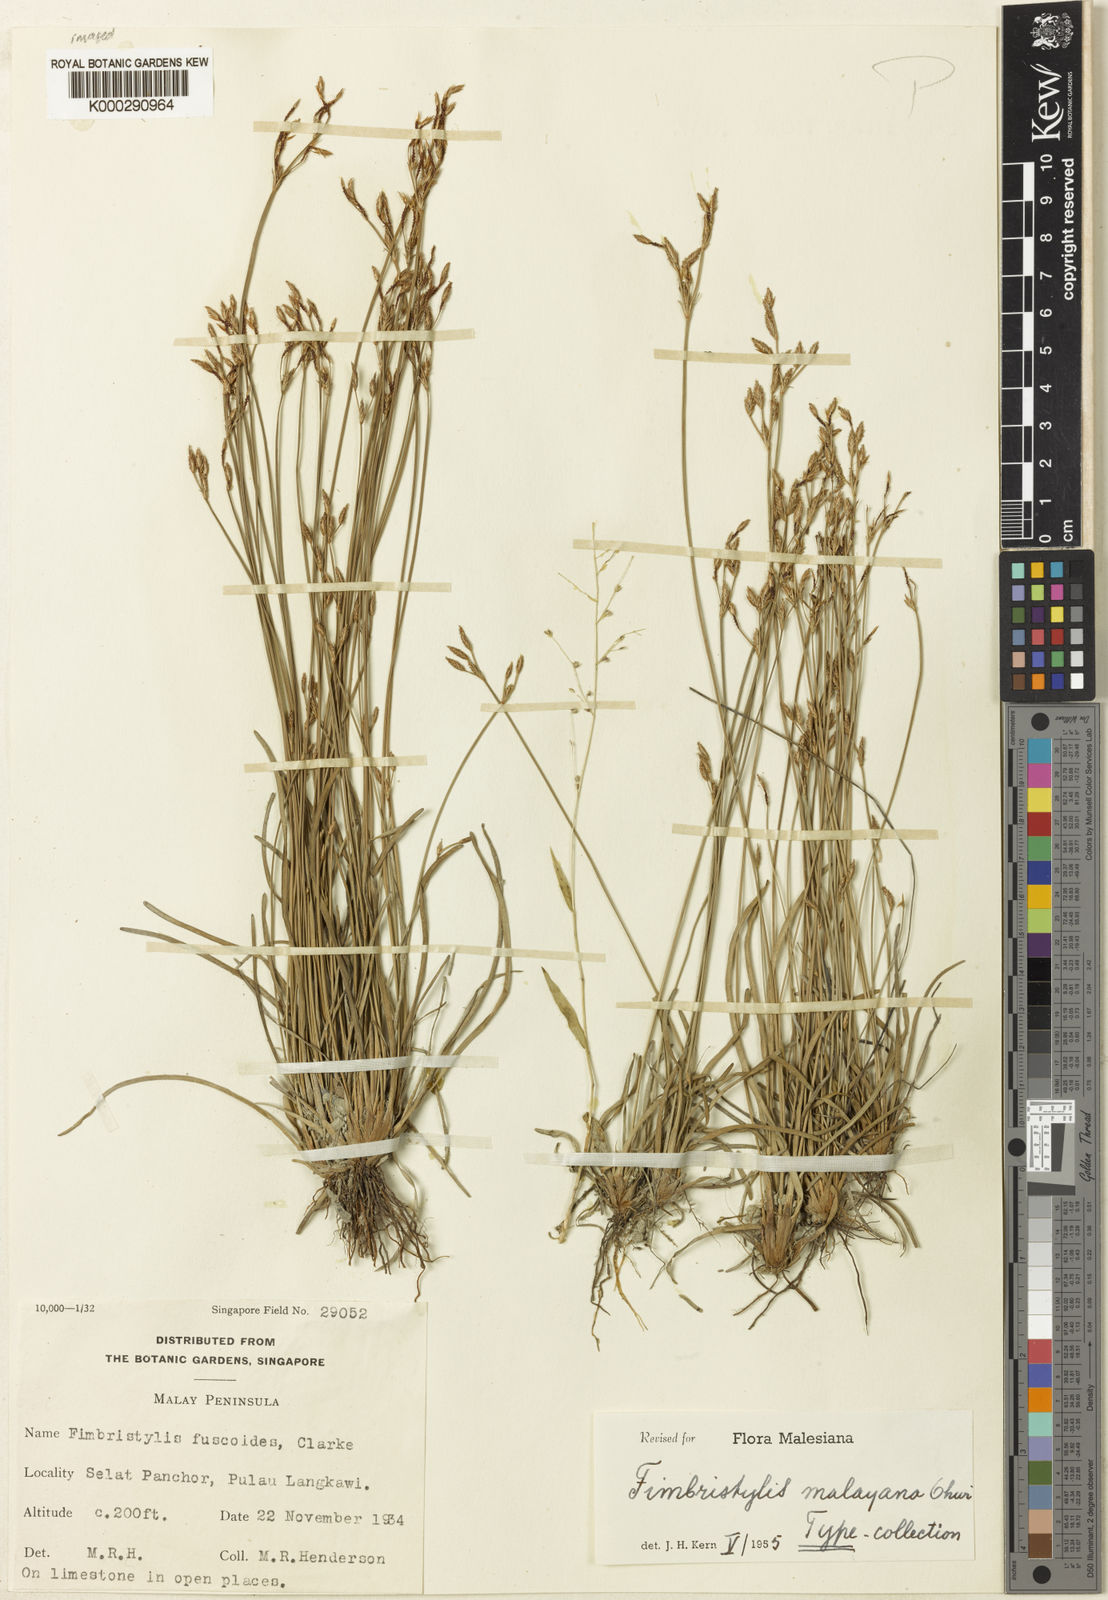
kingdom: Plantae
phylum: Tracheophyta
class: Liliopsida
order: Poales
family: Cyperaceae
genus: Fimbristylis
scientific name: Fimbristylis malayana
